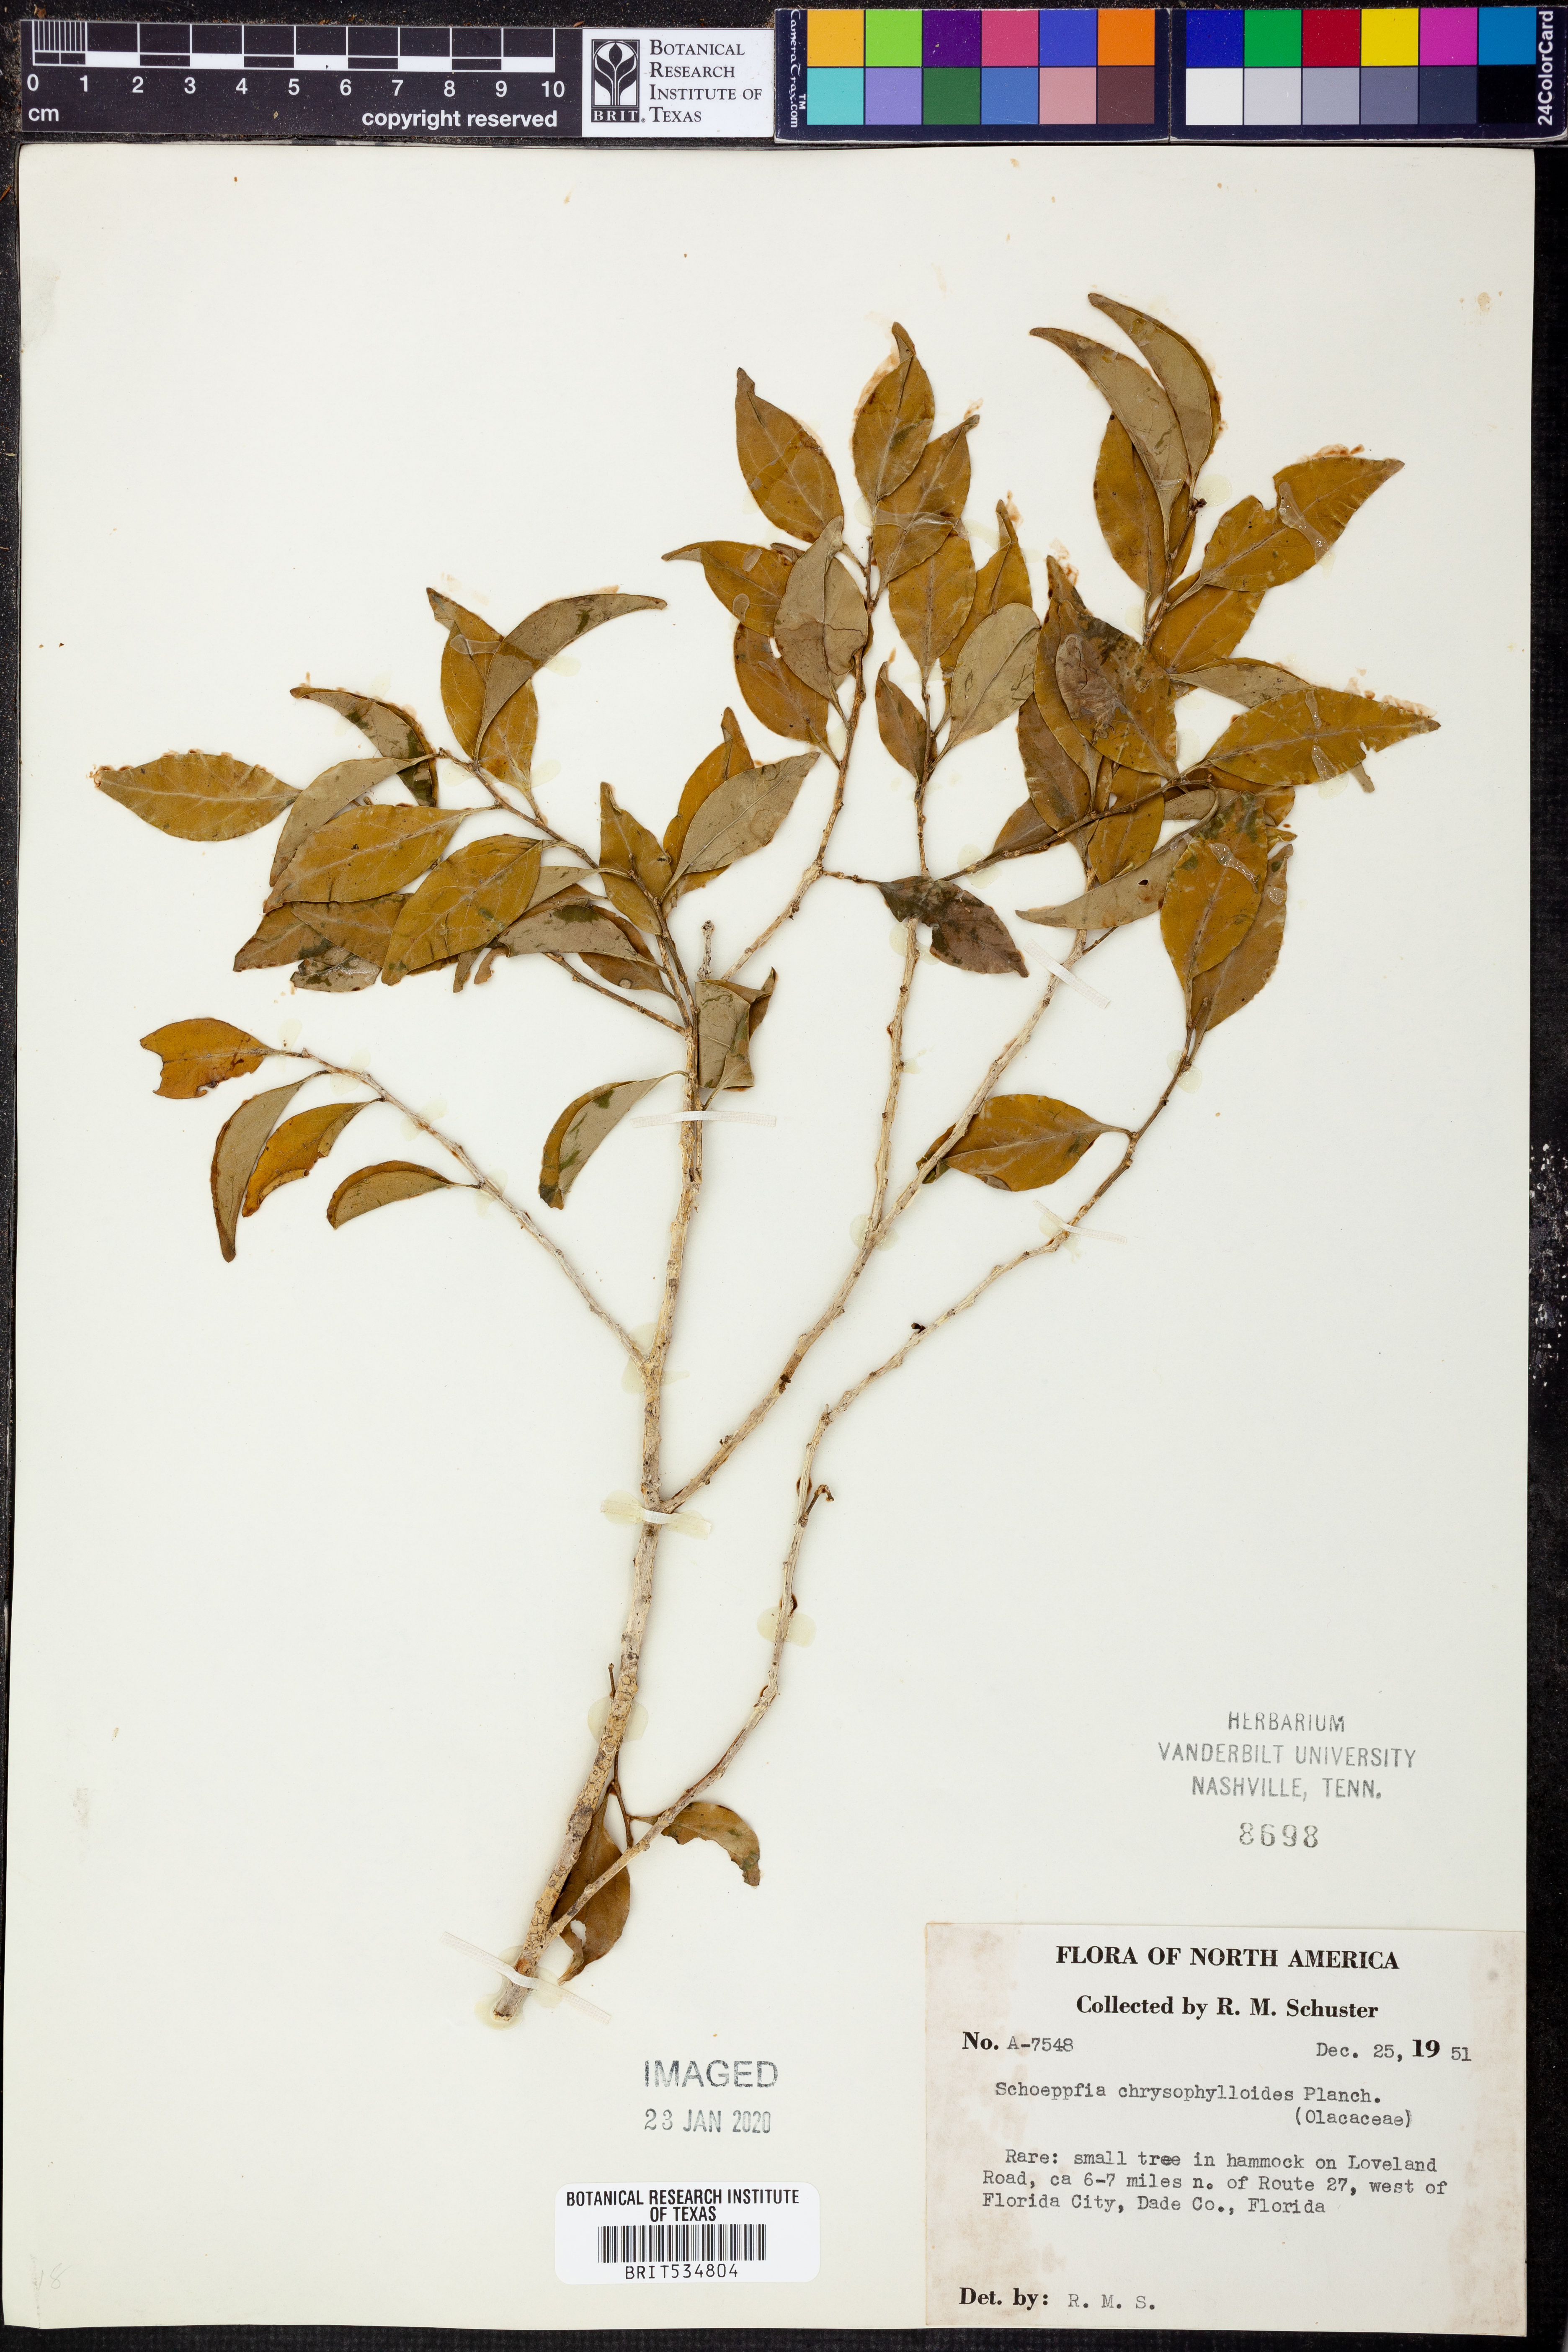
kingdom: Plantae
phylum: Tracheophyta
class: Magnoliopsida
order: Santalales
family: Schoepfiaceae
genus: Schoepfia
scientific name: Schoepfia schreberi
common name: Gulf graytwig
